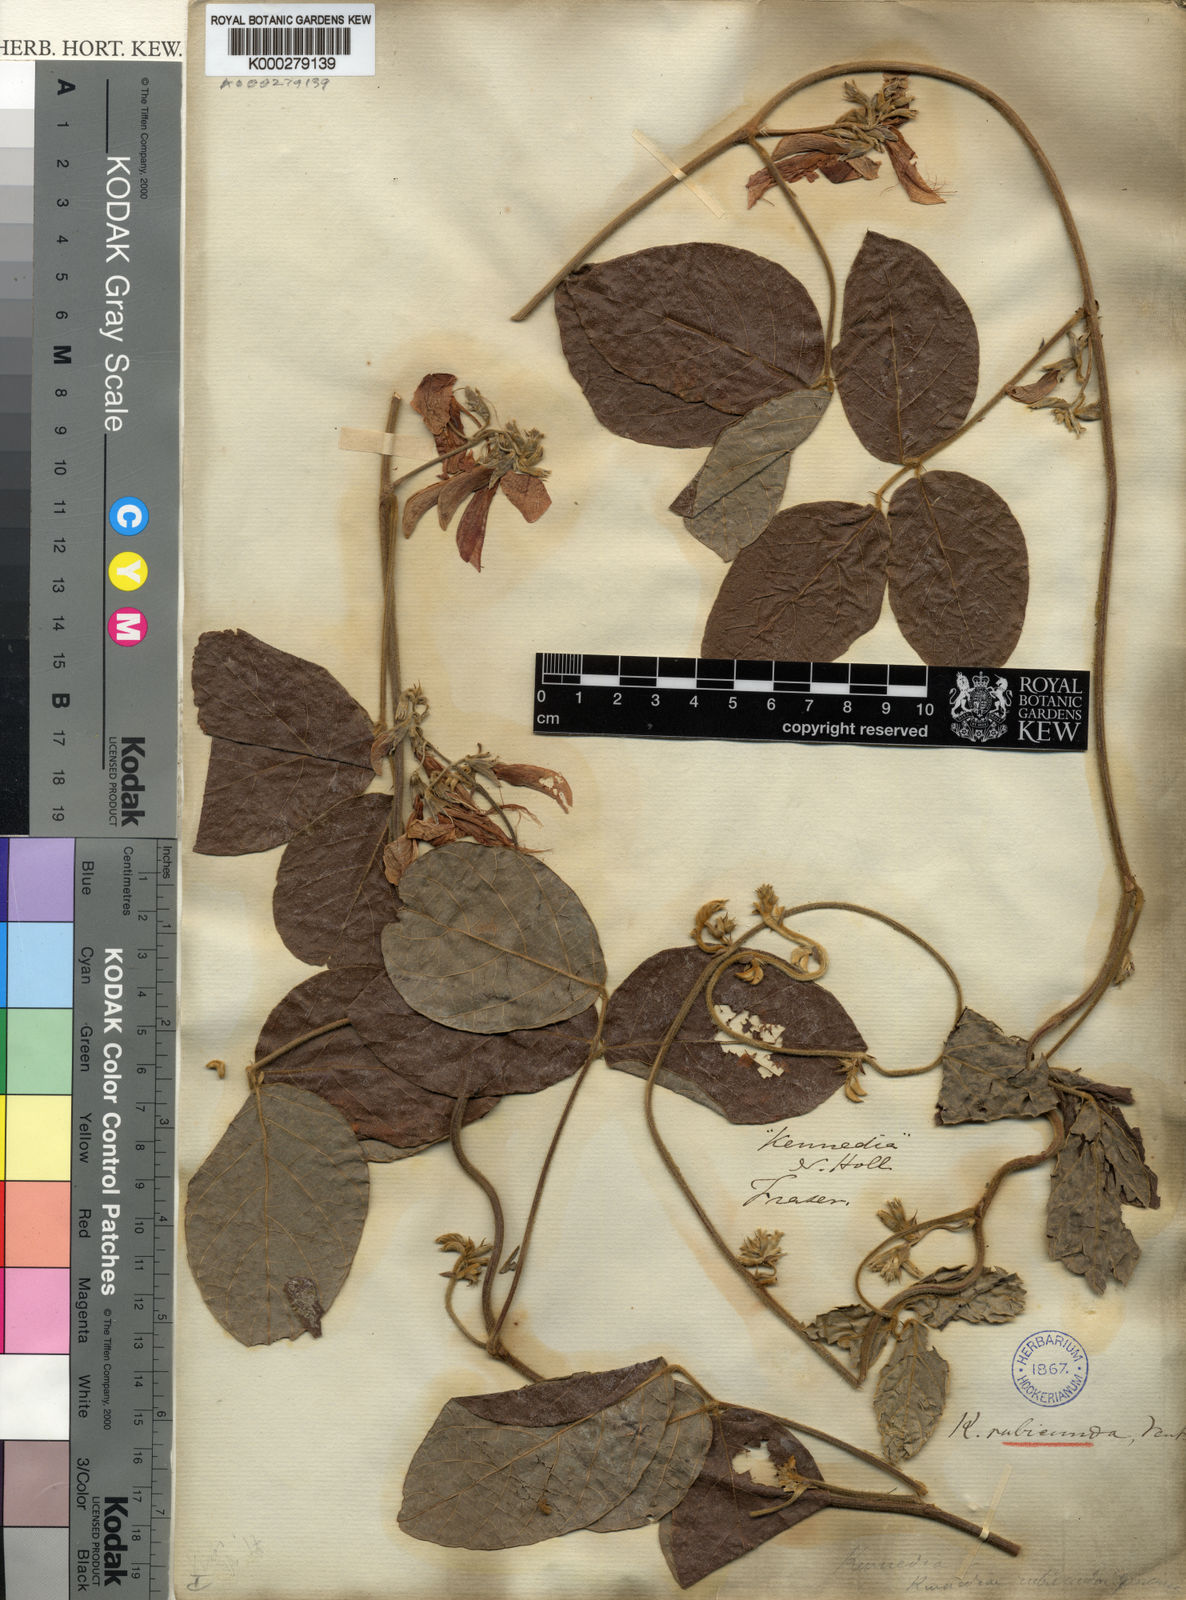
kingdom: Plantae
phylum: Tracheophyta
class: Magnoliopsida
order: Fabales
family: Fabaceae
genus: Kennedia
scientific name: Kennedia rubicunda
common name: Red kennedy-pea
